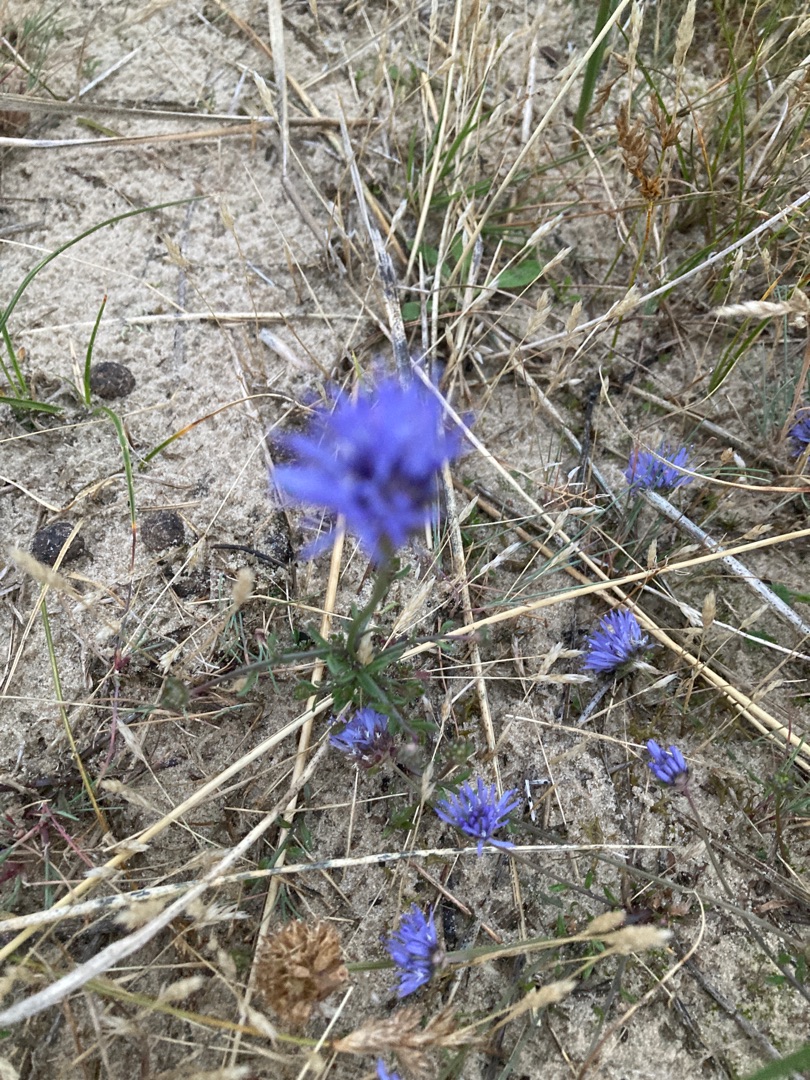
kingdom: Plantae
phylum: Tracheophyta
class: Magnoliopsida
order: Asterales
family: Campanulaceae
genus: Jasione
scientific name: Jasione montana
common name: Blåmunke
